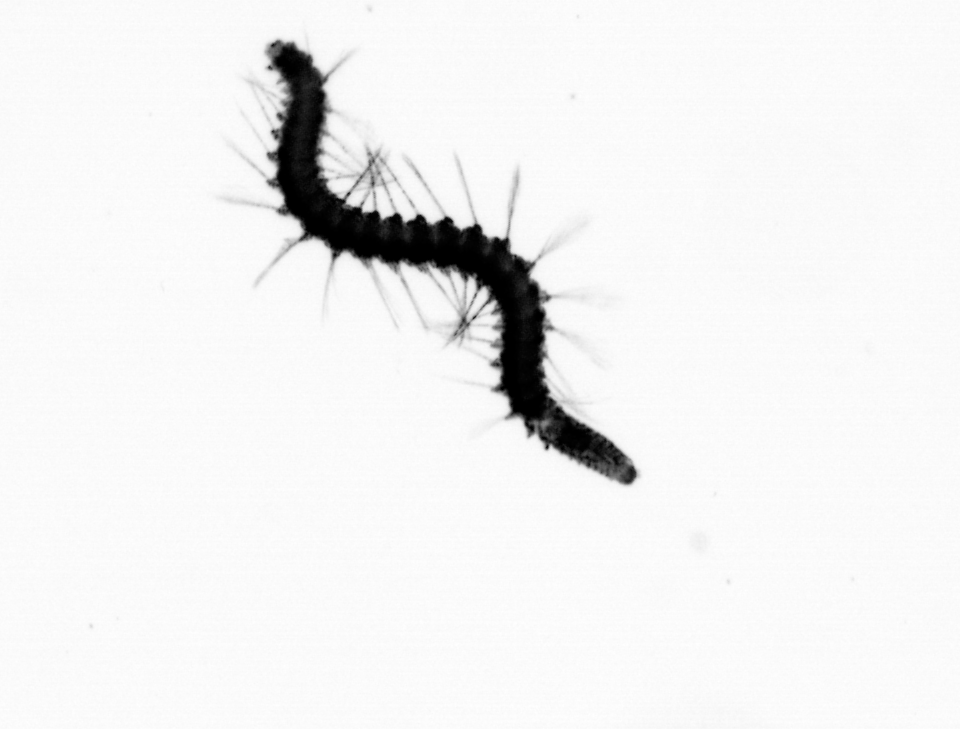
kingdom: Animalia
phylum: Annelida
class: Polychaeta
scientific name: Polychaeta
